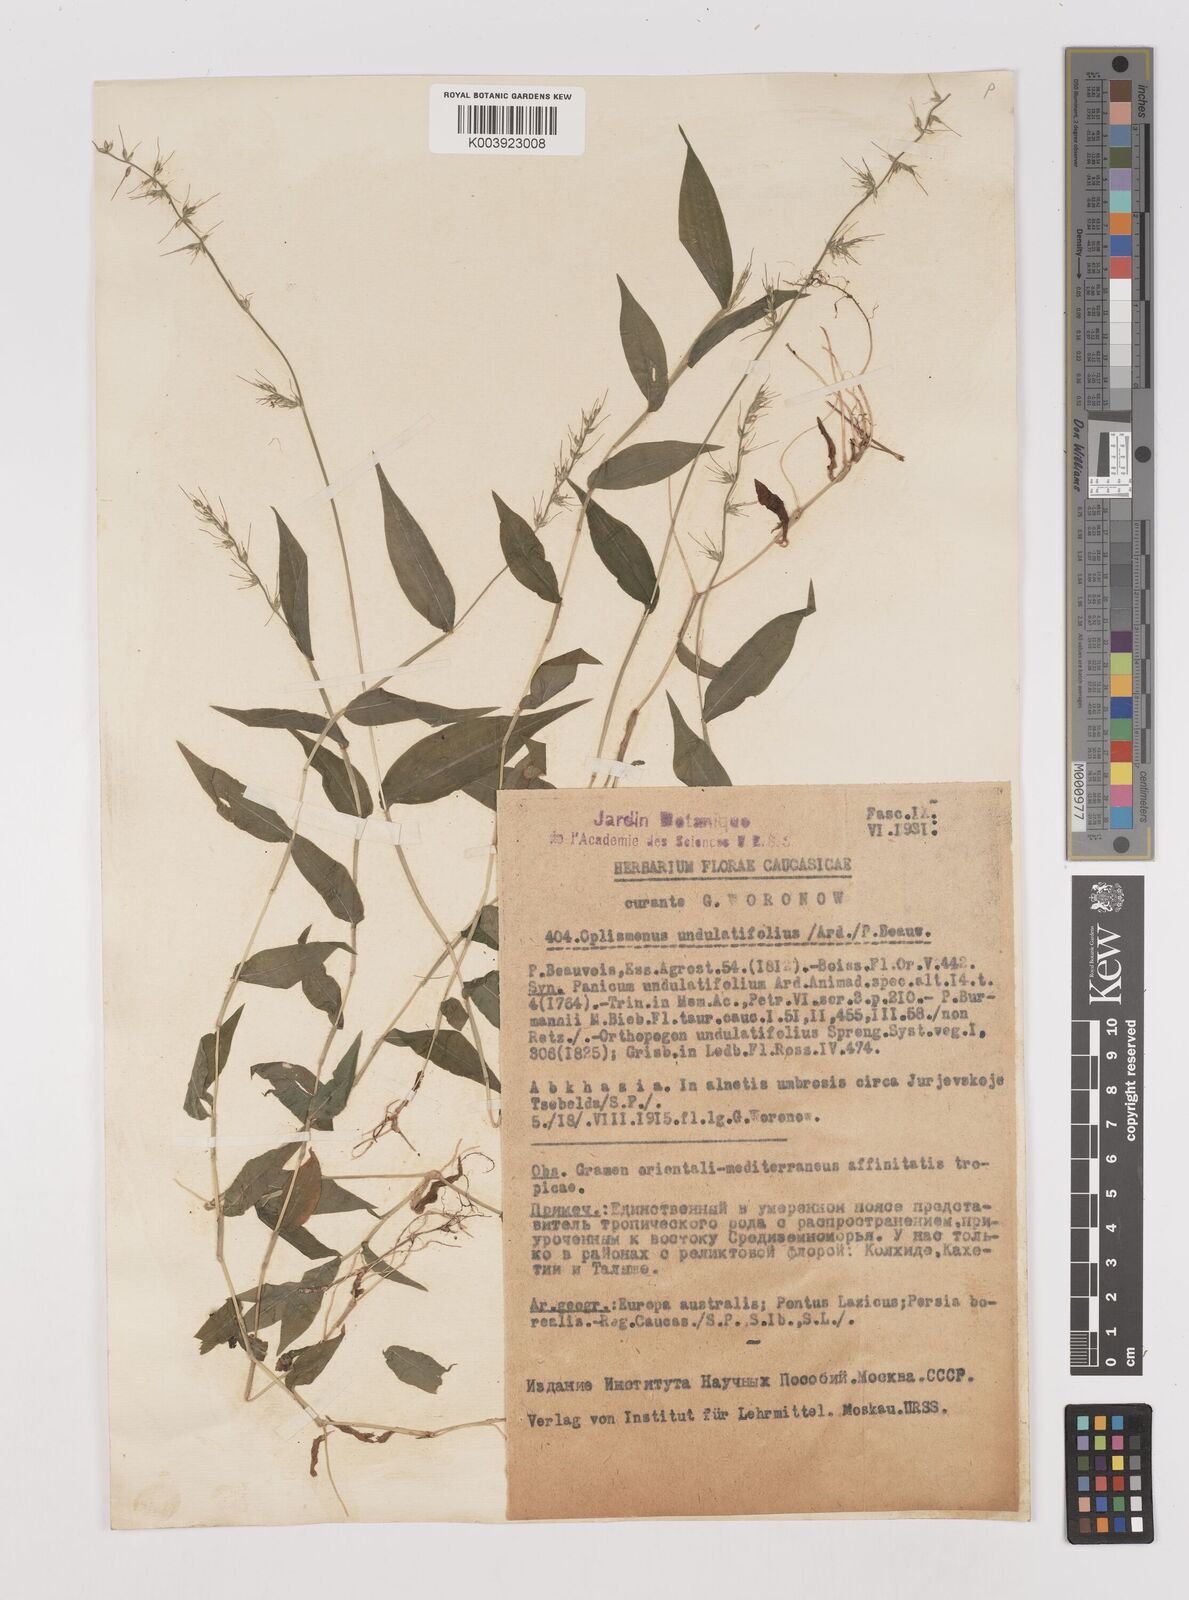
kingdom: Plantae
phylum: Tracheophyta
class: Liliopsida
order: Poales
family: Poaceae
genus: Oplismenus
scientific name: Oplismenus undulatifolius
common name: Wavyleaf basketgrass
